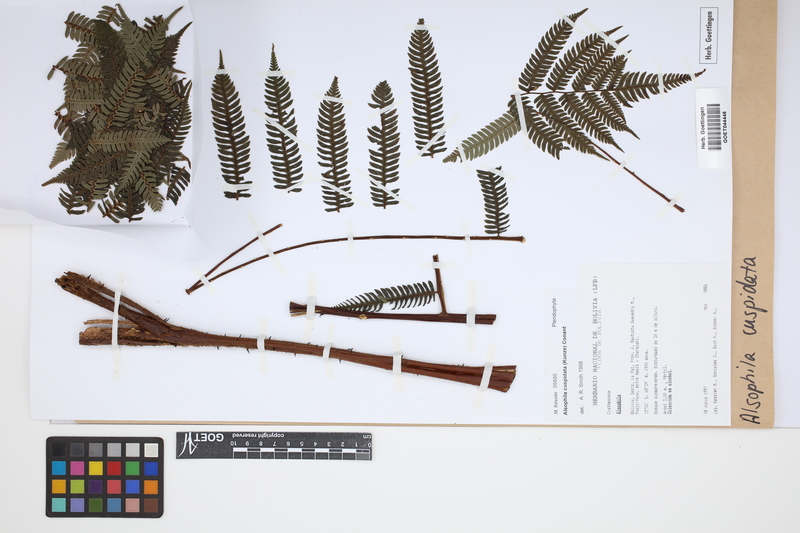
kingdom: Plantae
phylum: Tracheophyta
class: Polypodiopsida
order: Cyatheales
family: Cyatheaceae
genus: Alsophila
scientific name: Alsophila cuspidata
